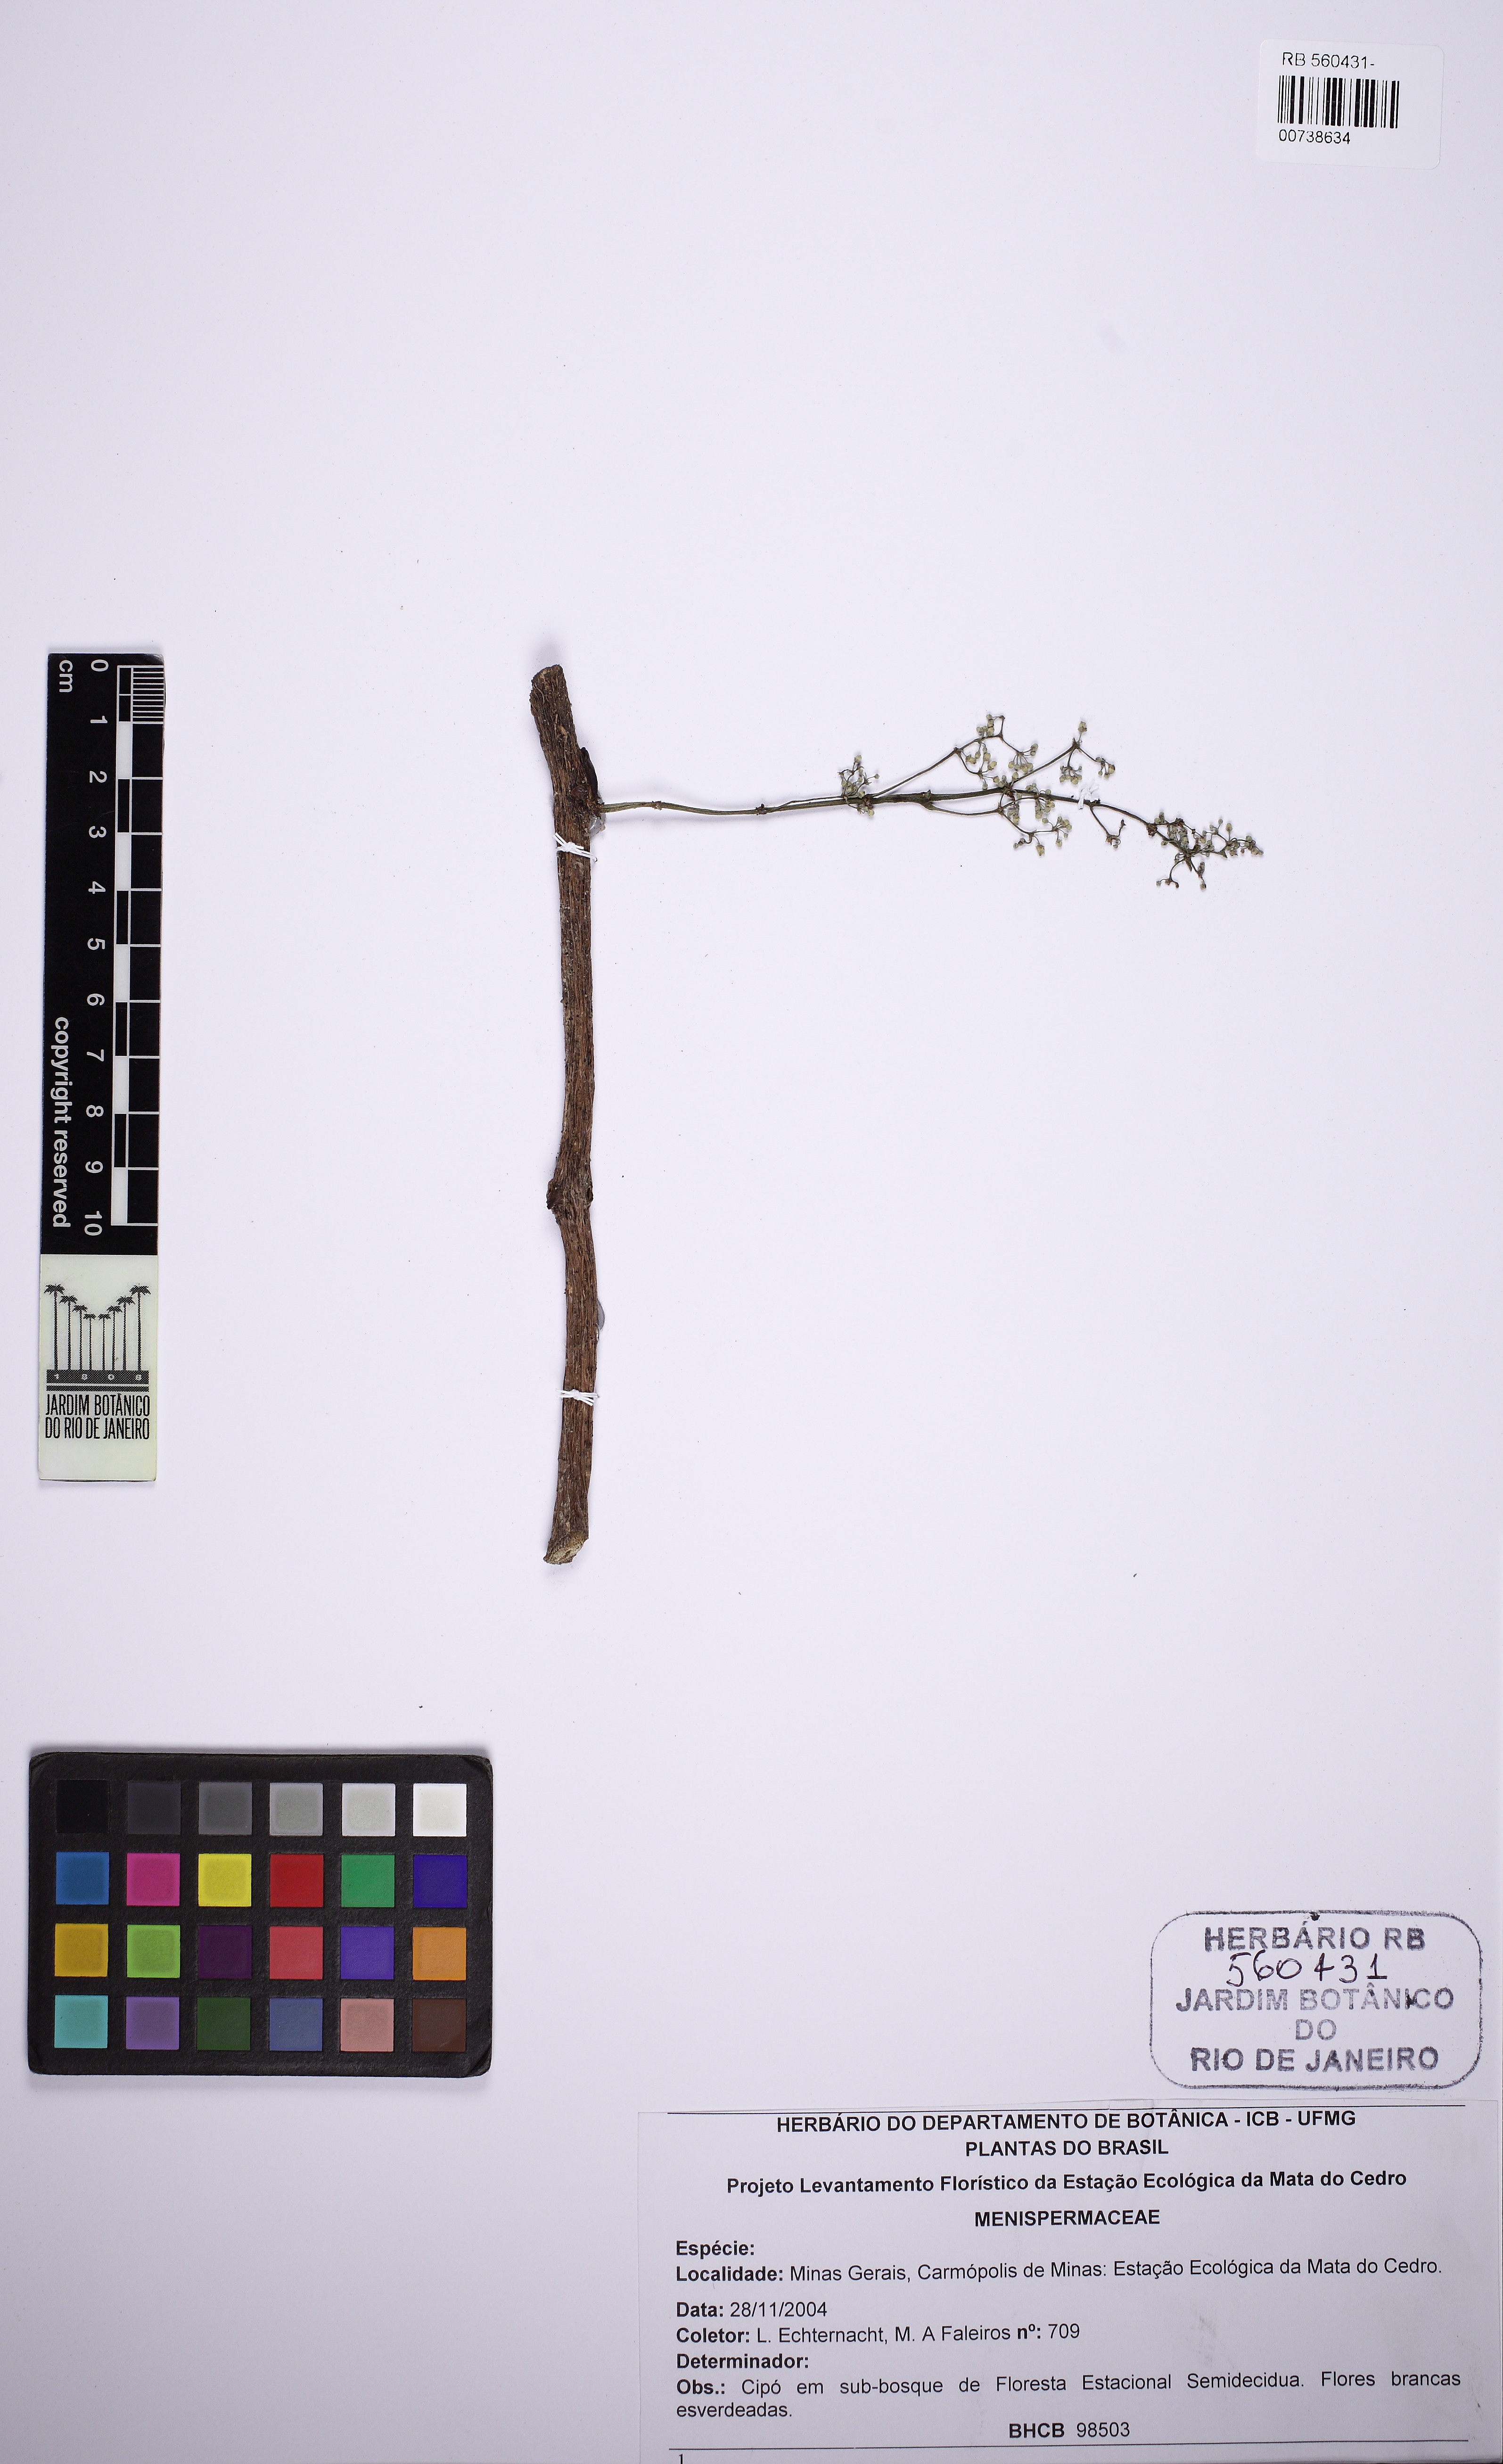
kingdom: Plantae
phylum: Tracheophyta
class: Magnoliopsida
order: Ranunculales
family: Menispermaceae
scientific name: Menispermaceae
